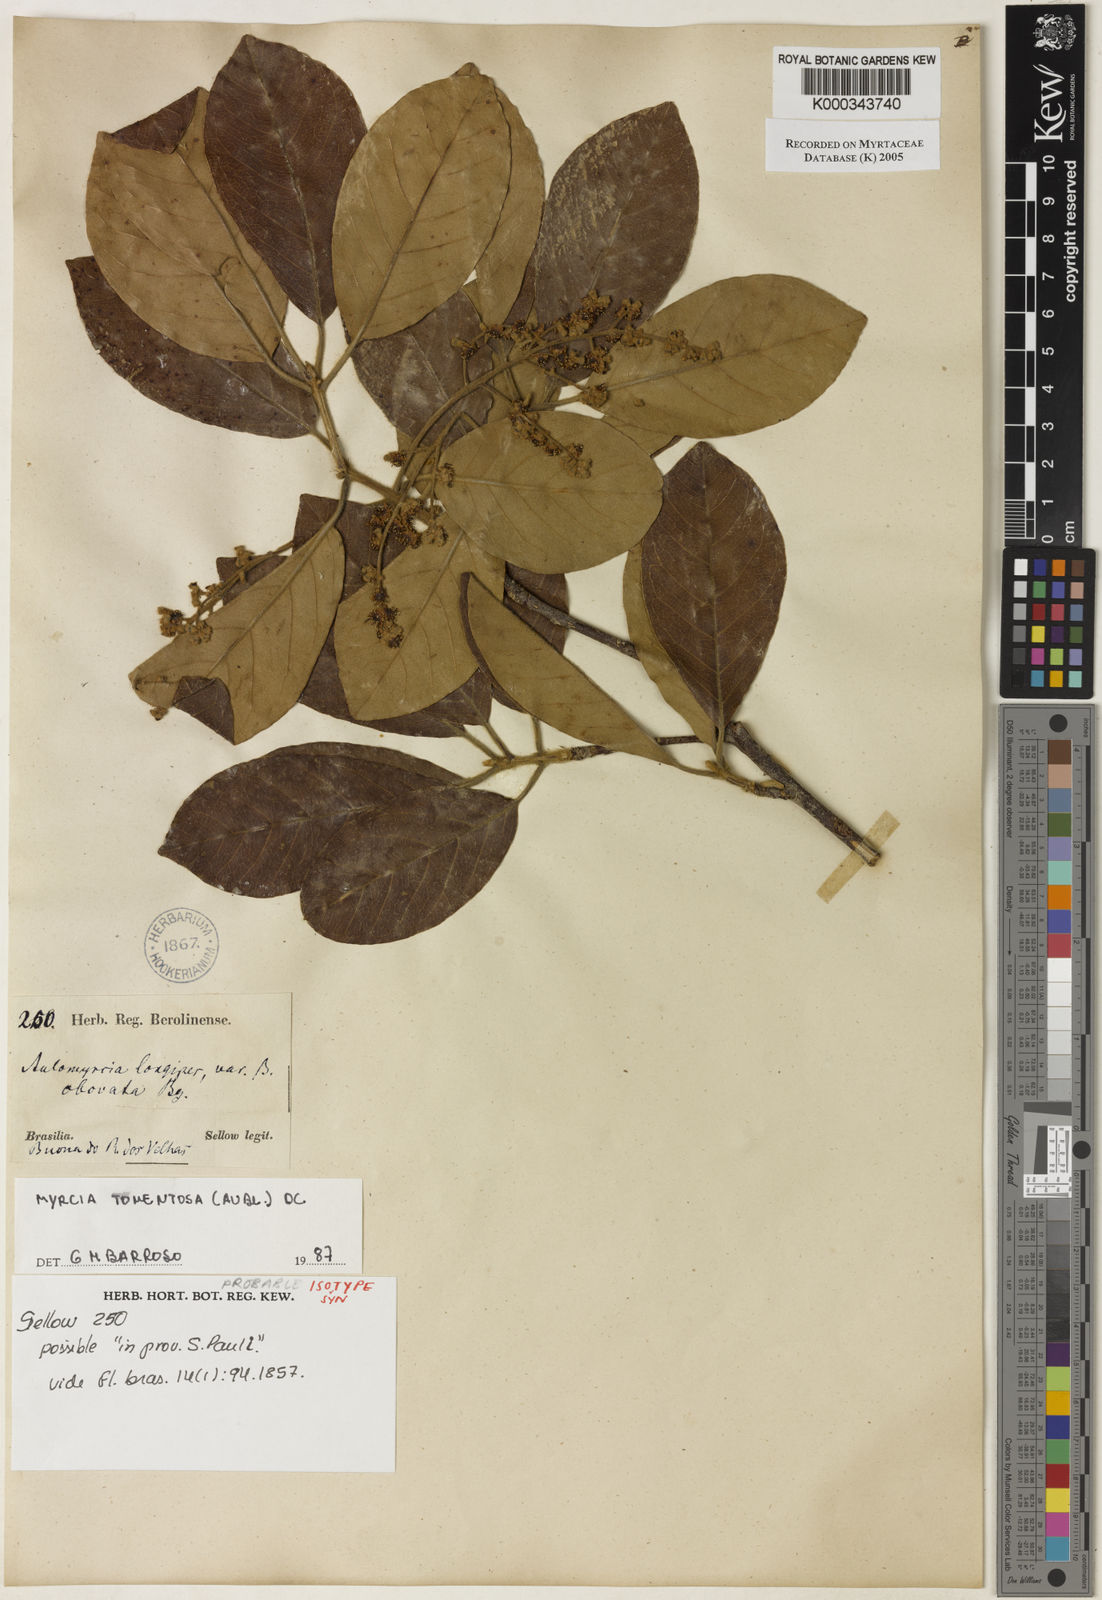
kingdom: Plantae
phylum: Tracheophyta
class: Magnoliopsida
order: Myrtales
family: Myrtaceae
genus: Myrcia
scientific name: Myrcia tomentosa
